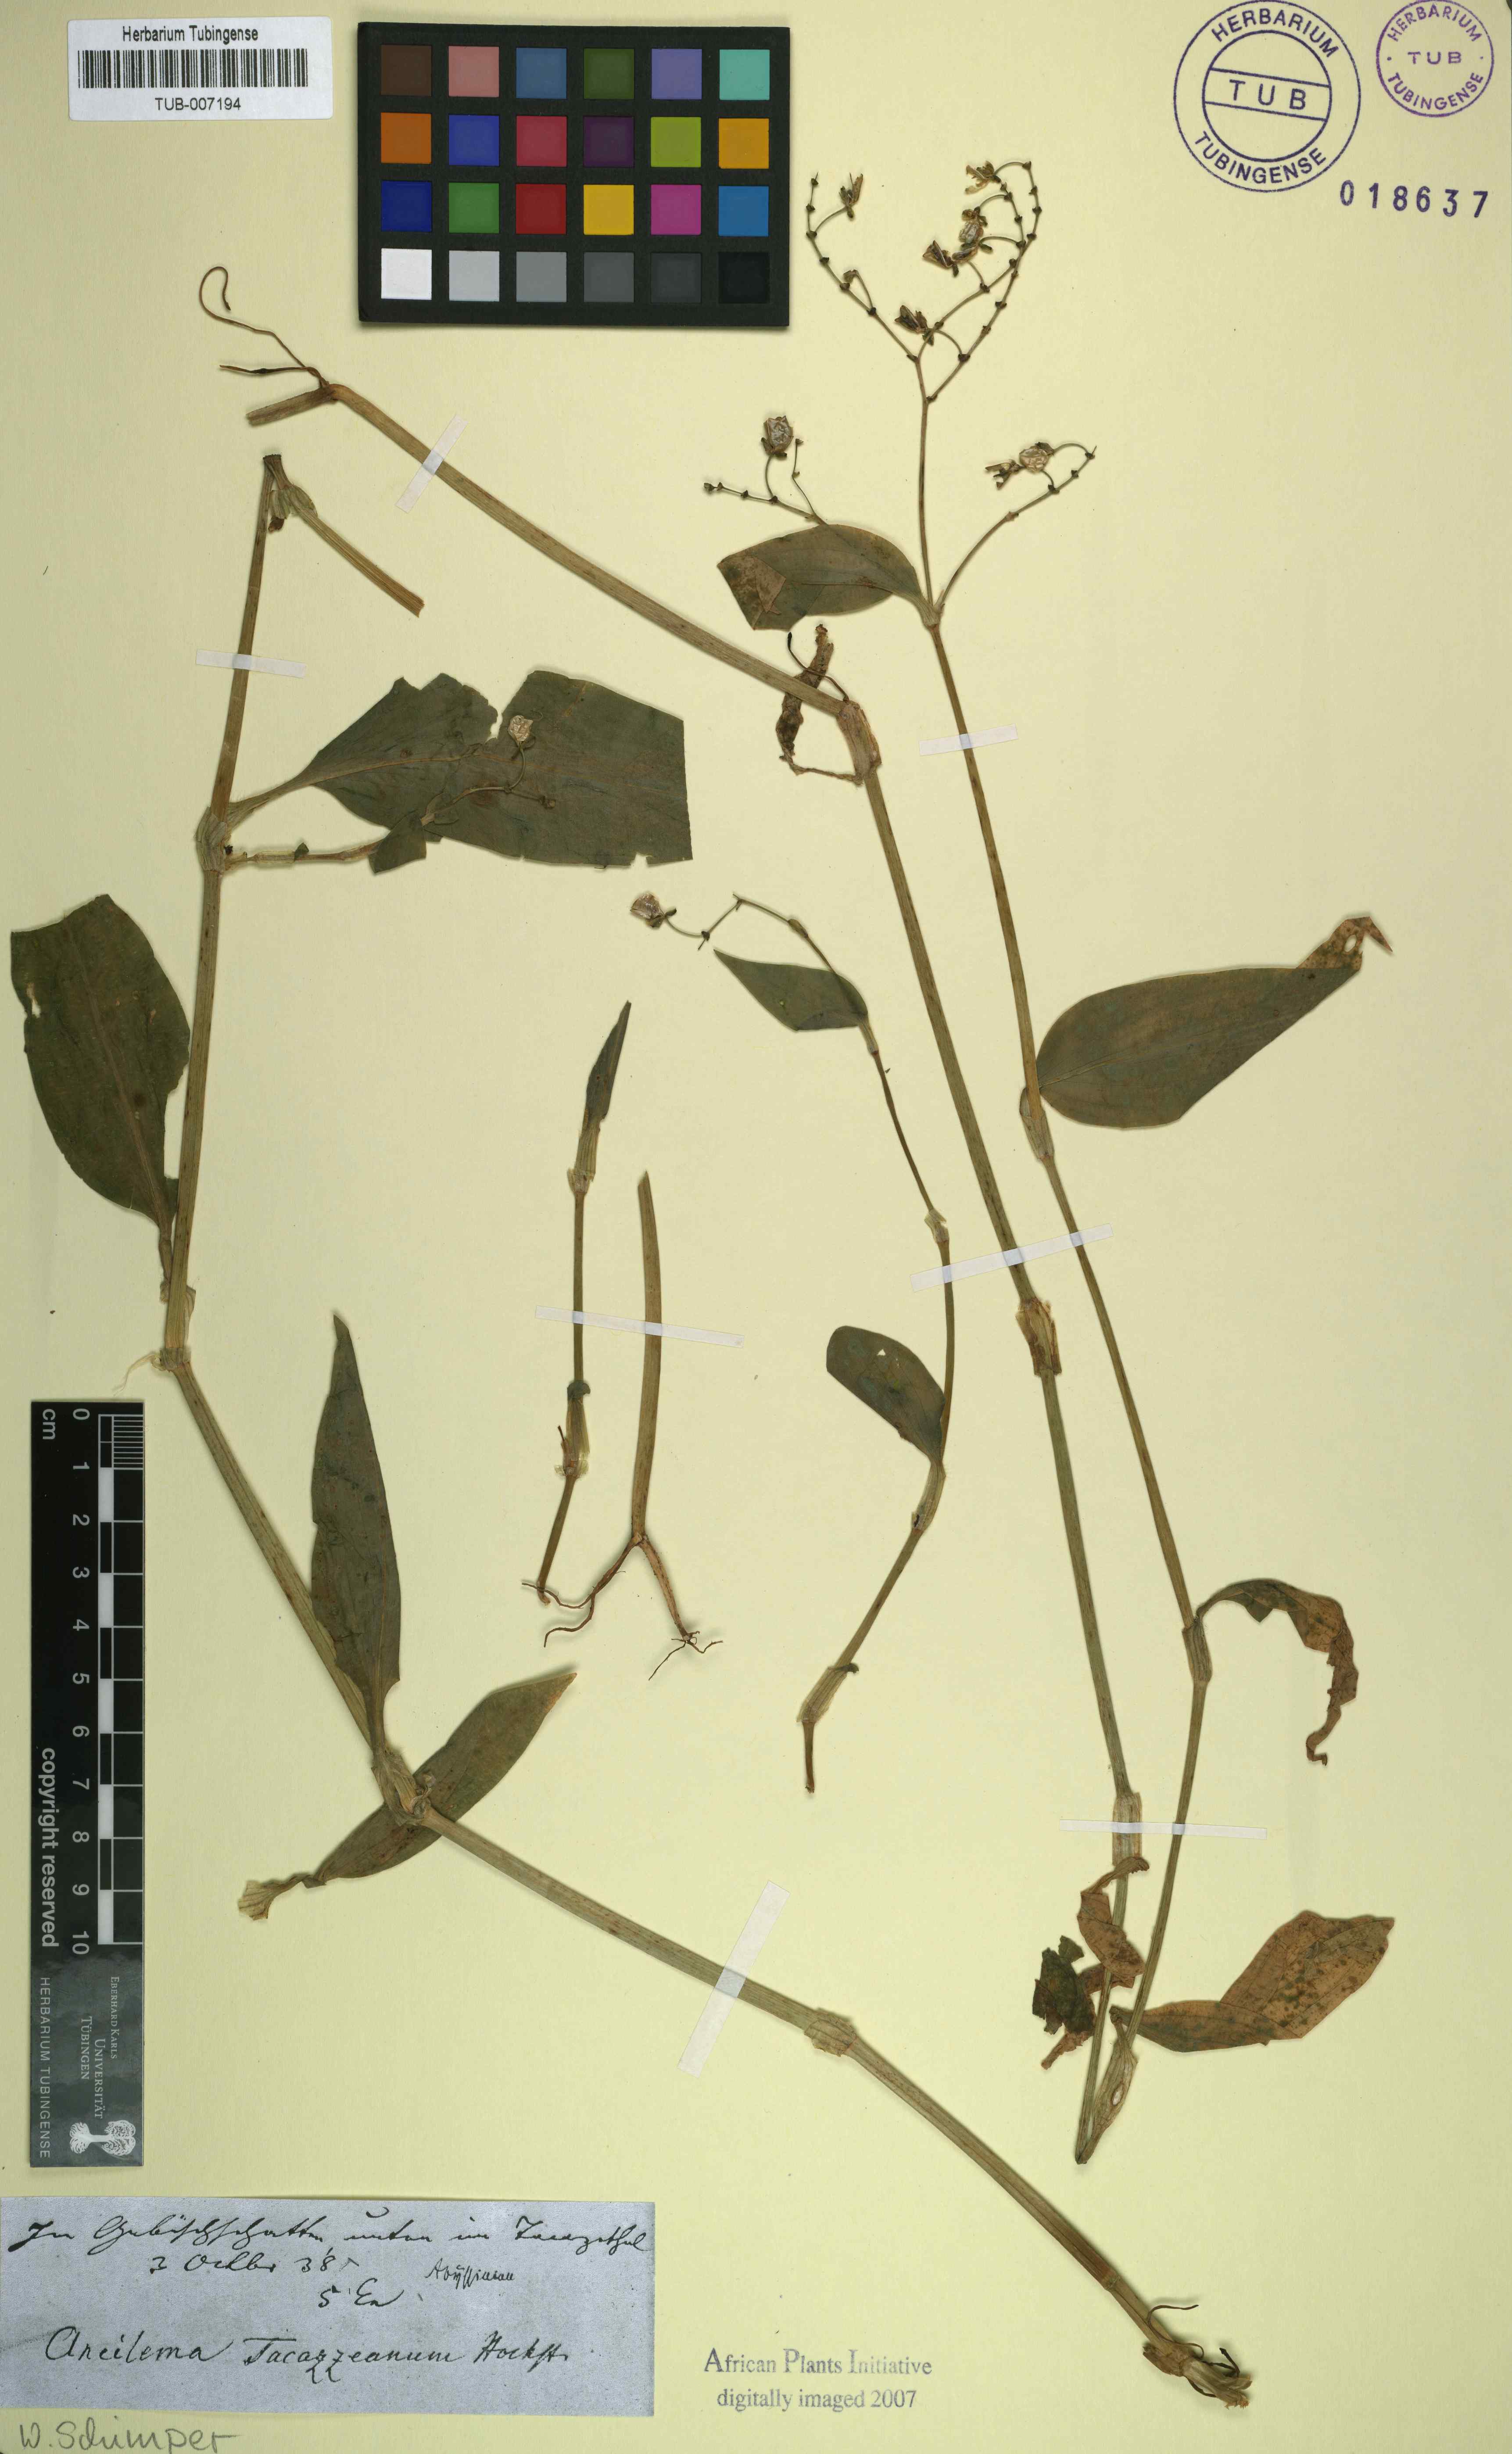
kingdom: Plantae
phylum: Tracheophyta
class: Liliopsida
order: Commelinales
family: Commelinaceae
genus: Commelina
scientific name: Commelina
